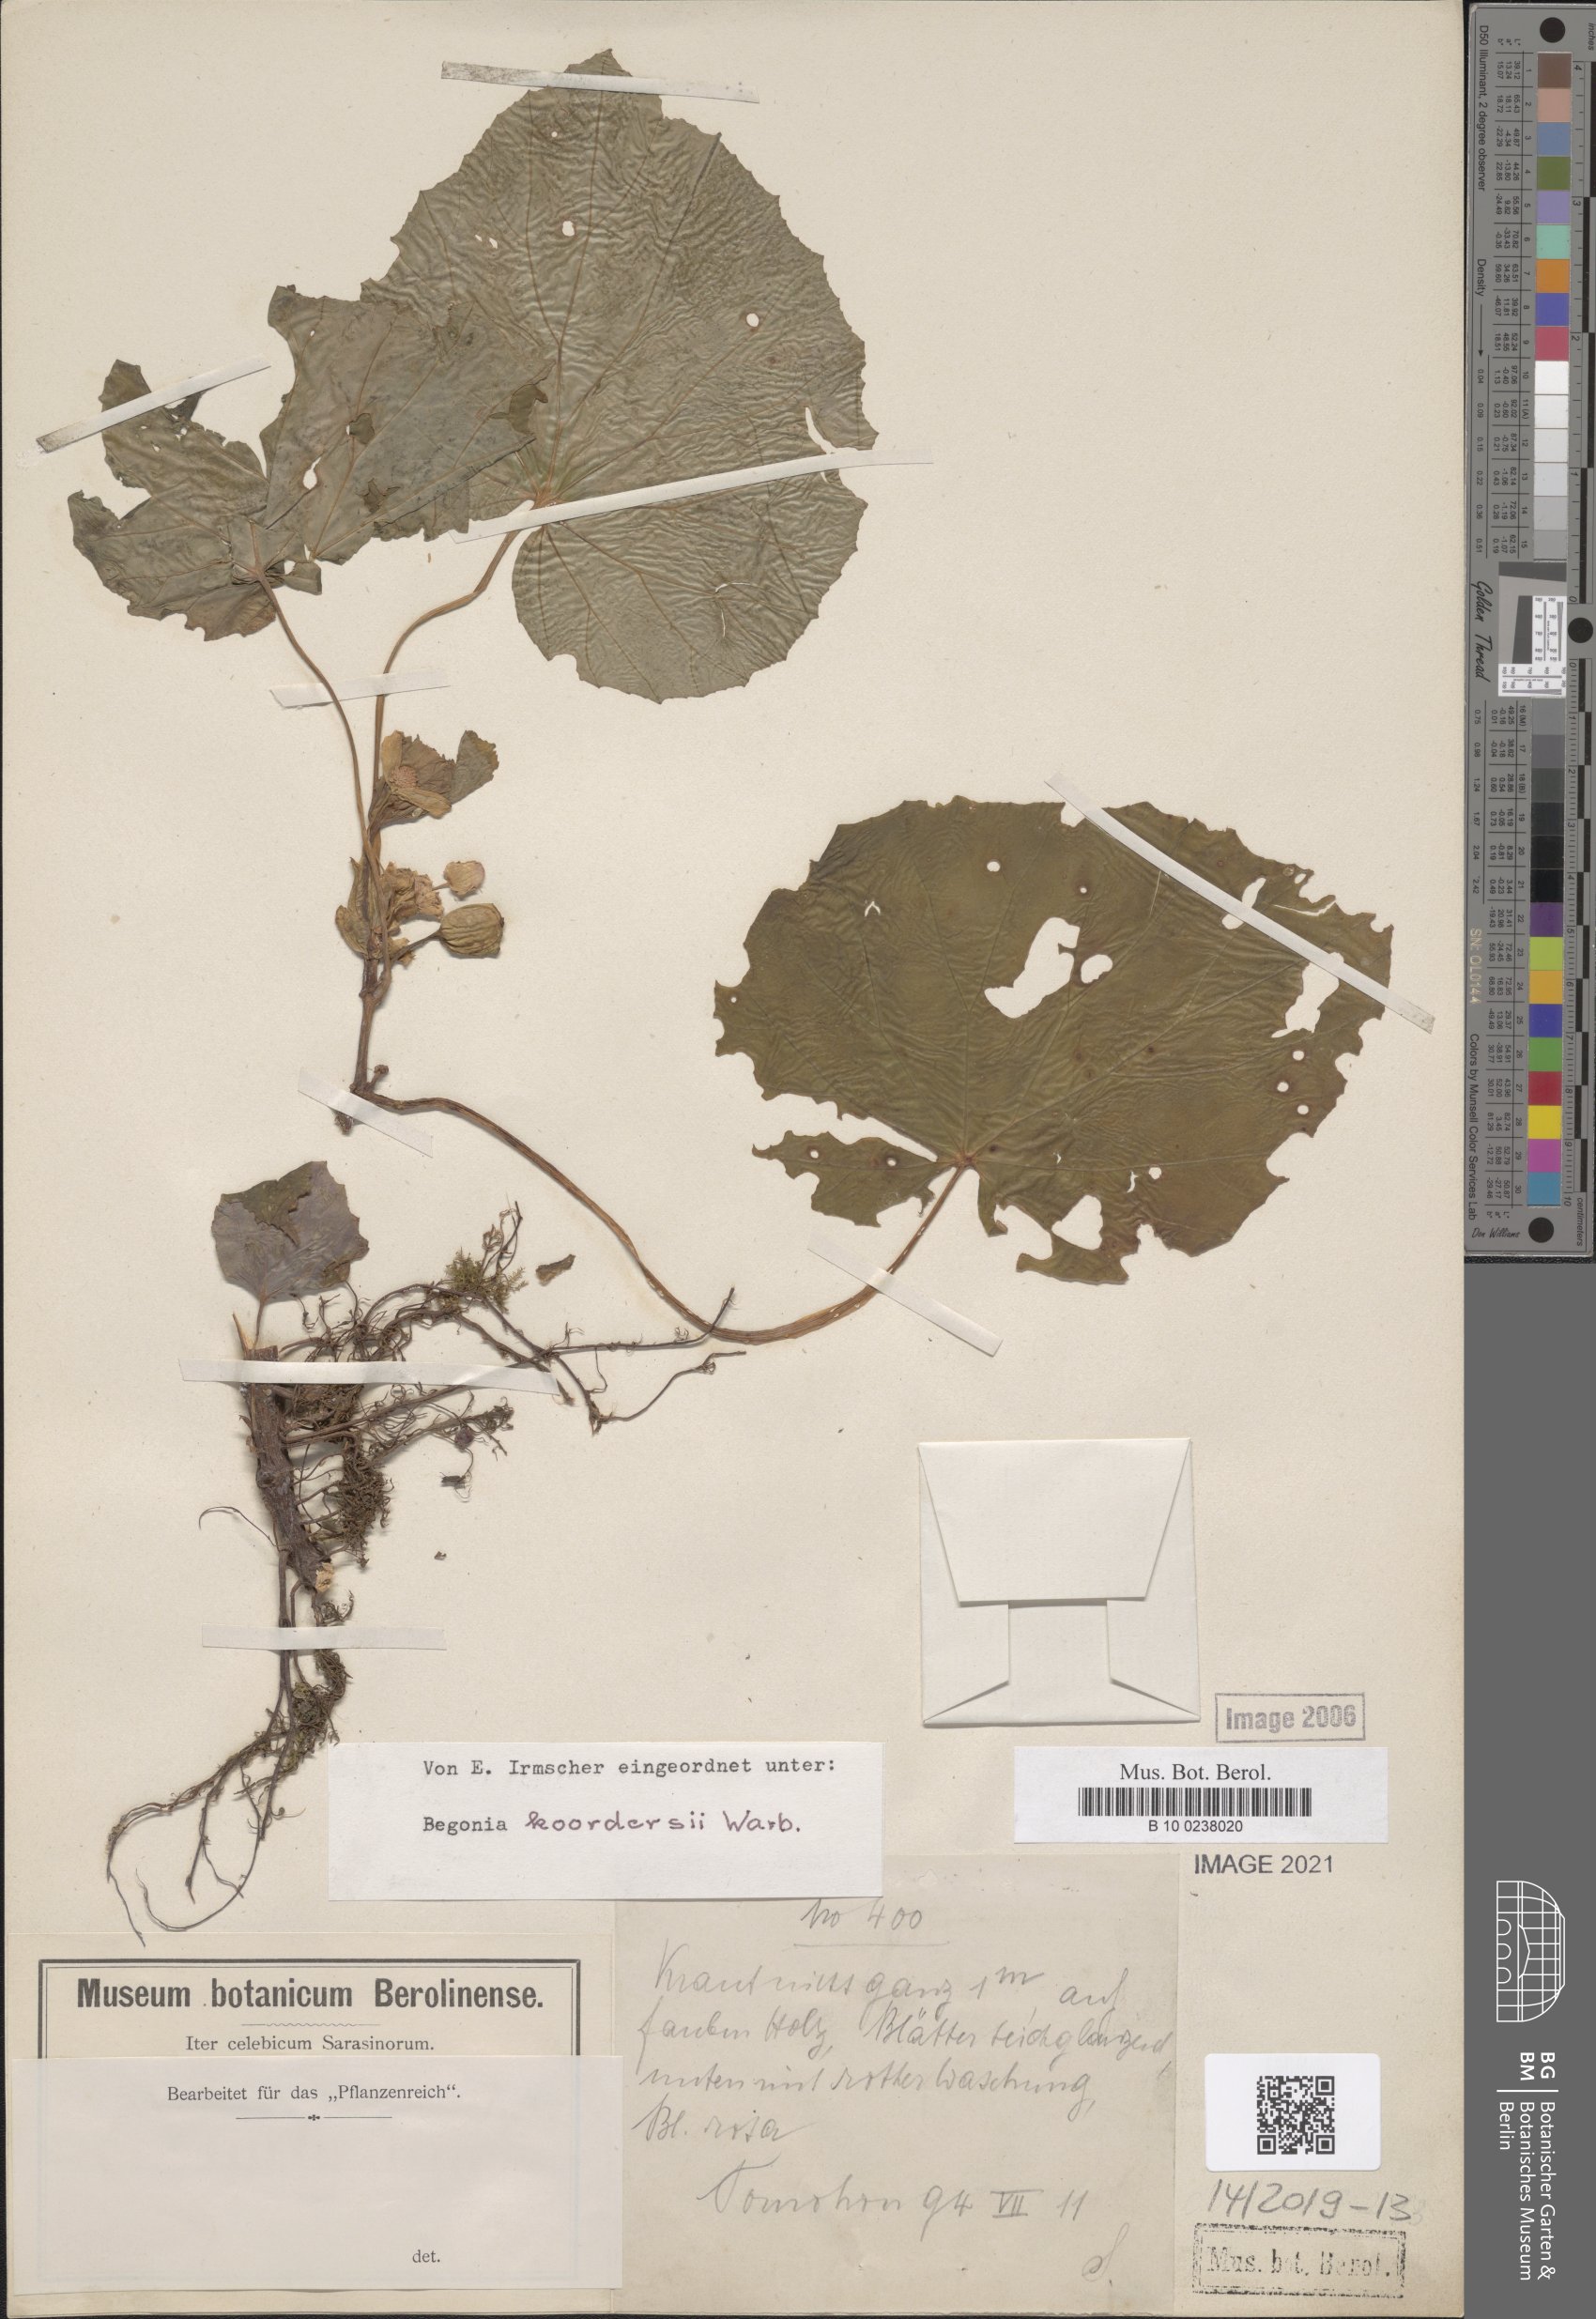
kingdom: Plantae
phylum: Tracheophyta
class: Magnoliopsida
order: Cucurbitales
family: Begoniaceae
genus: Begonia
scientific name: Begonia koordersii
